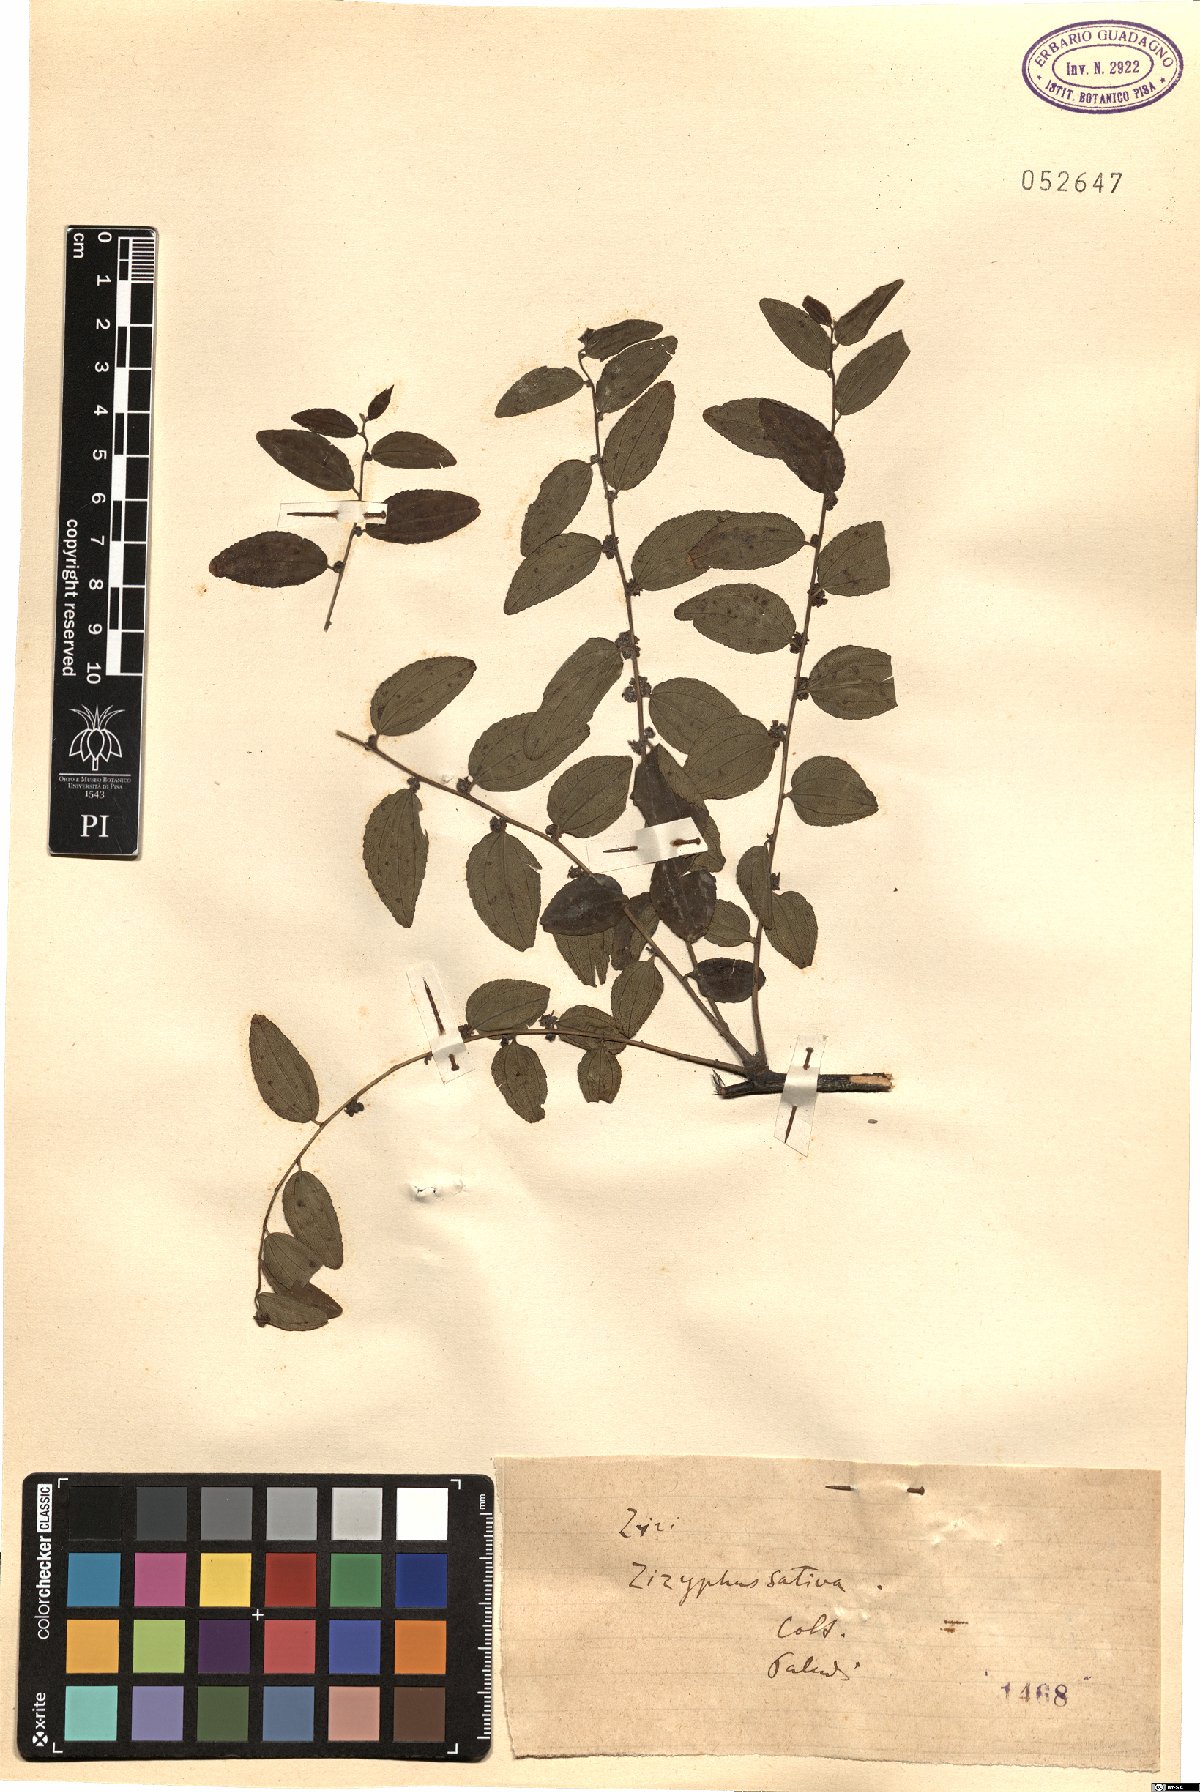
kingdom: Plantae
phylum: Tracheophyta
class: Magnoliopsida
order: Rosales
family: Rhamnaceae
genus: Ziziphus
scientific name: Ziziphus jujuba
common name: Jujube red date
